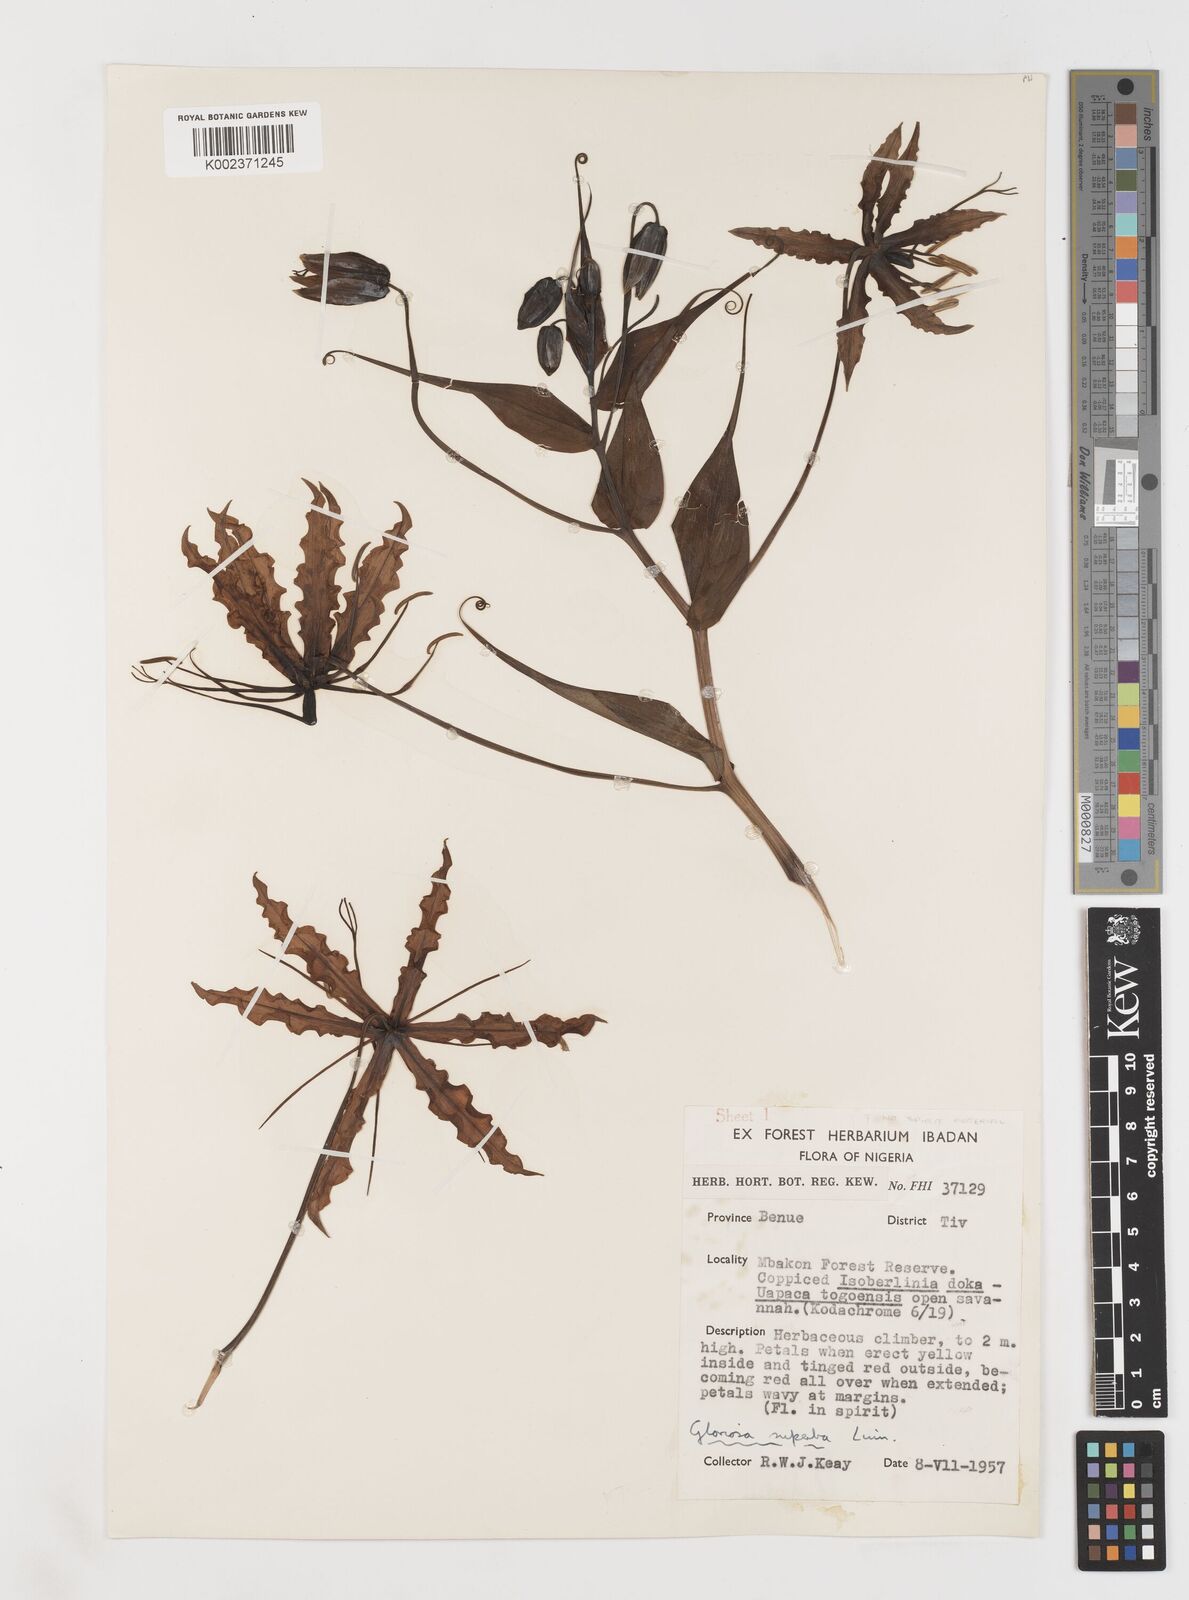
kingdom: Plantae
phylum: Tracheophyta
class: Liliopsida
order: Liliales
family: Colchicaceae
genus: Gloriosa
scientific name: Gloriosa superba
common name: Flame lily
